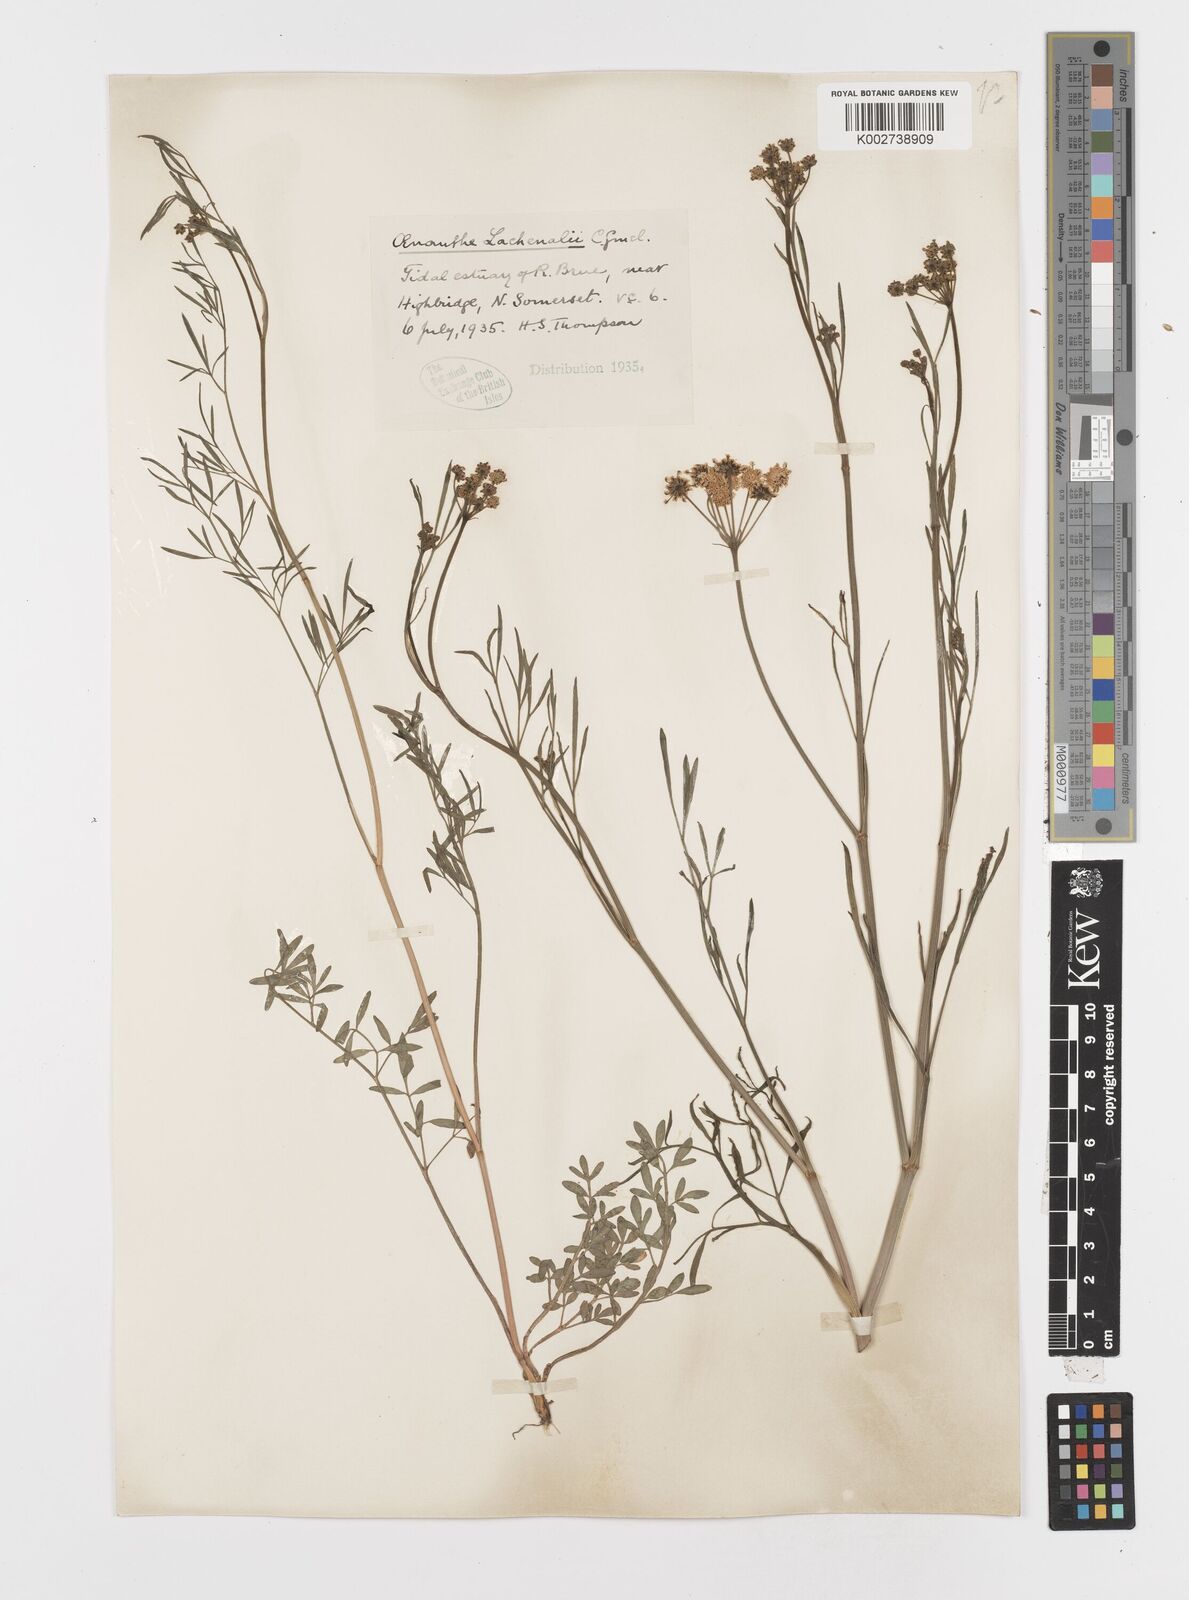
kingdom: Plantae
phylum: Tracheophyta
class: Magnoliopsida
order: Apiales
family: Apiaceae
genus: Oenanthe
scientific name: Oenanthe lachenalii
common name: Parsley water-dropwort
